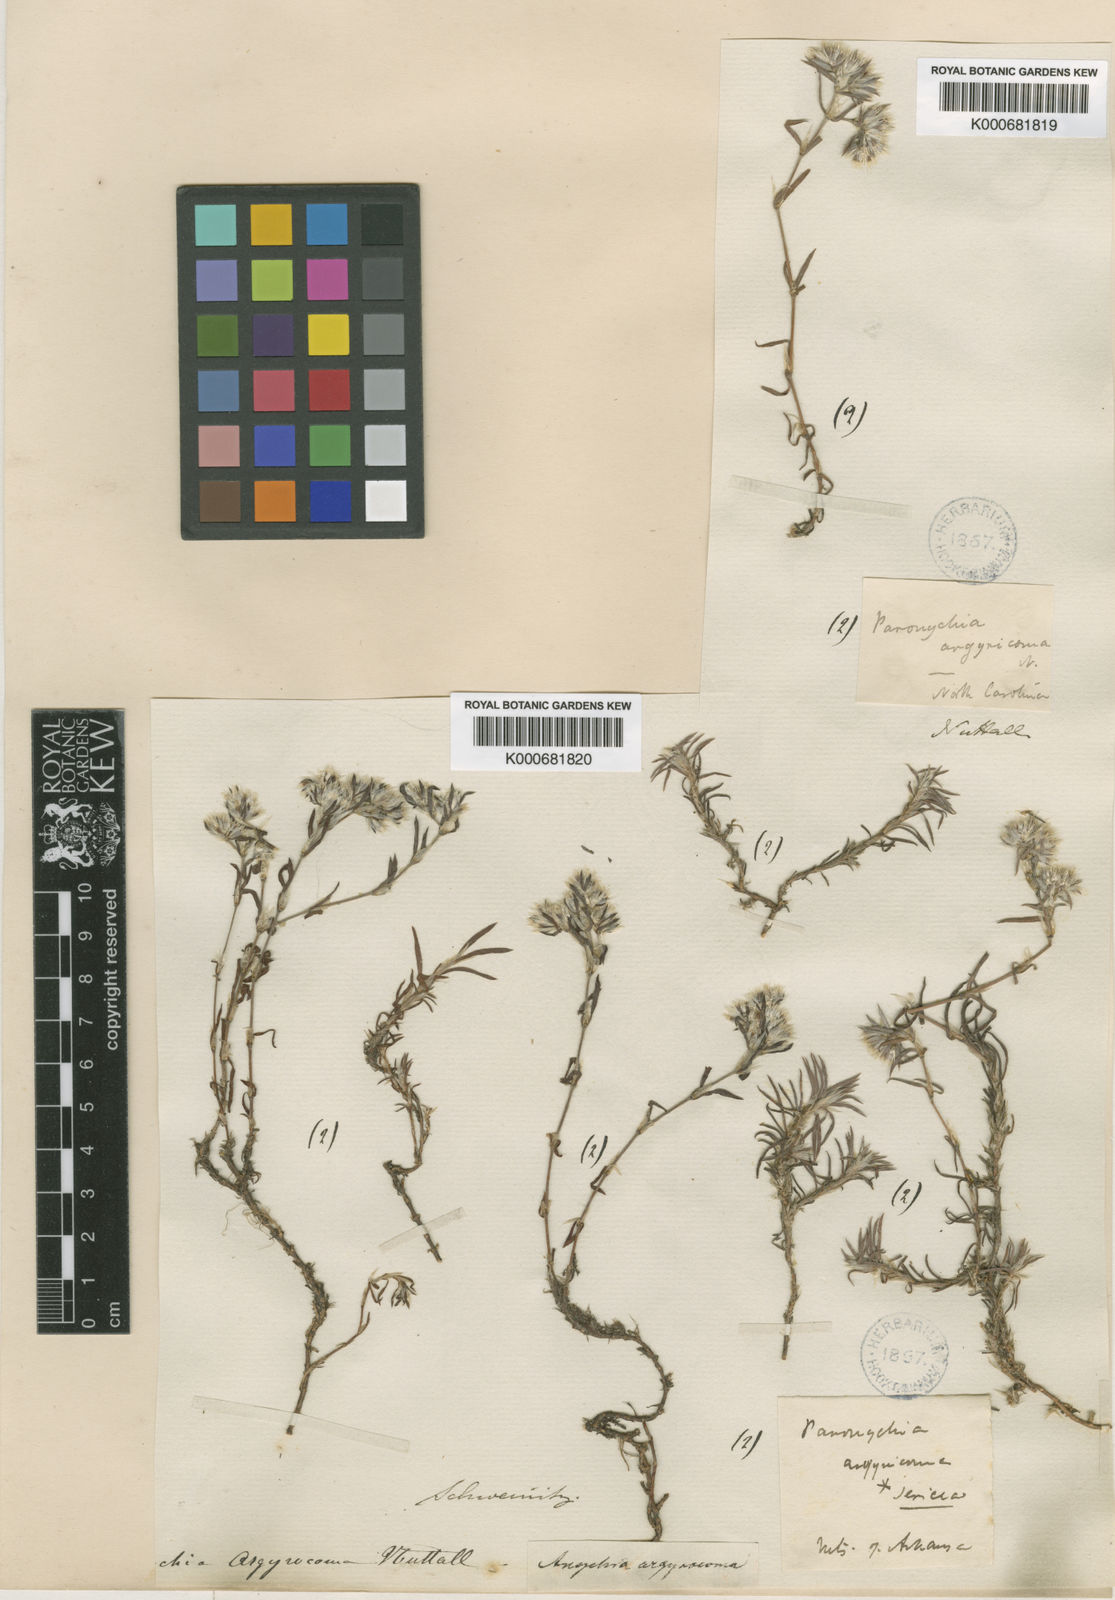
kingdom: Plantae
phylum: Tracheophyta
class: Magnoliopsida
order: Caryophyllales
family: Caryophyllaceae
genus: Paronychia
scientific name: Paronychia argyrocoma
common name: Silverling
